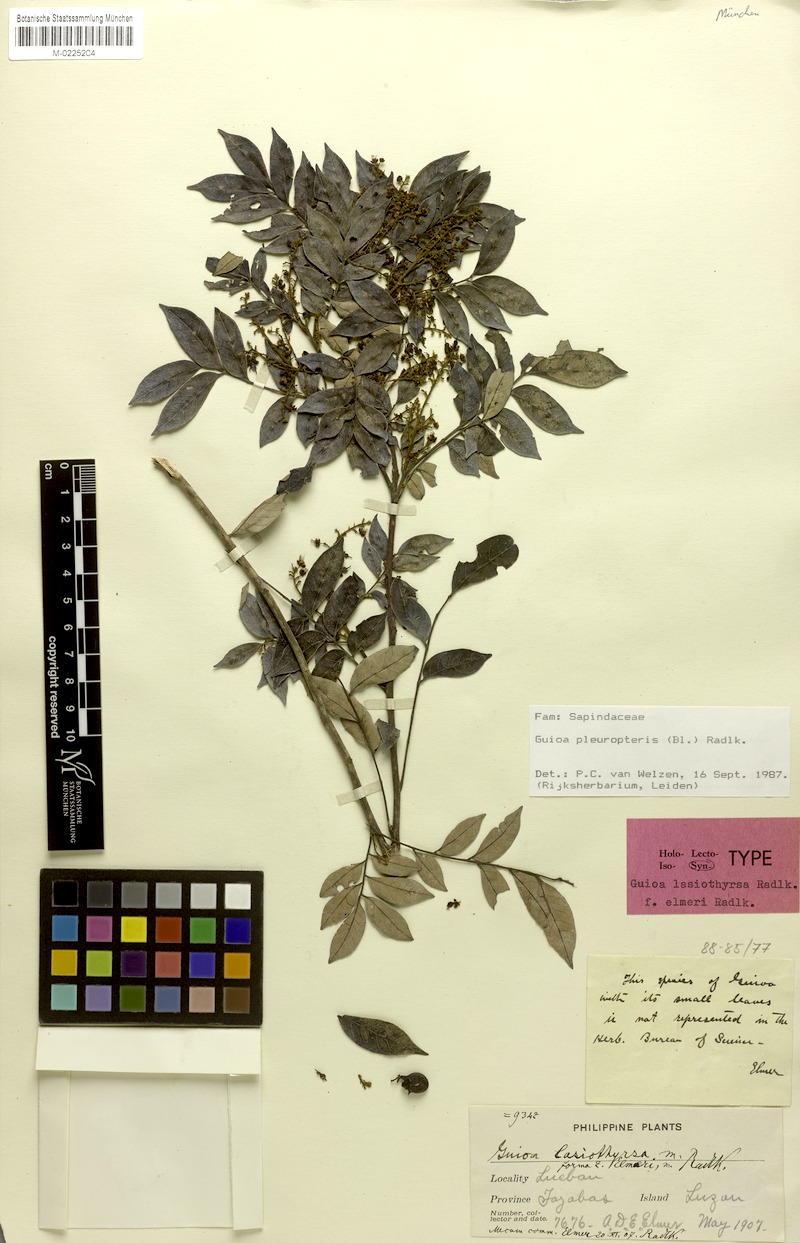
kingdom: Plantae
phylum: Tracheophyta
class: Magnoliopsida
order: Sapindales
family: Sapindaceae
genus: Guioa
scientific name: Guioa pleuropteris
